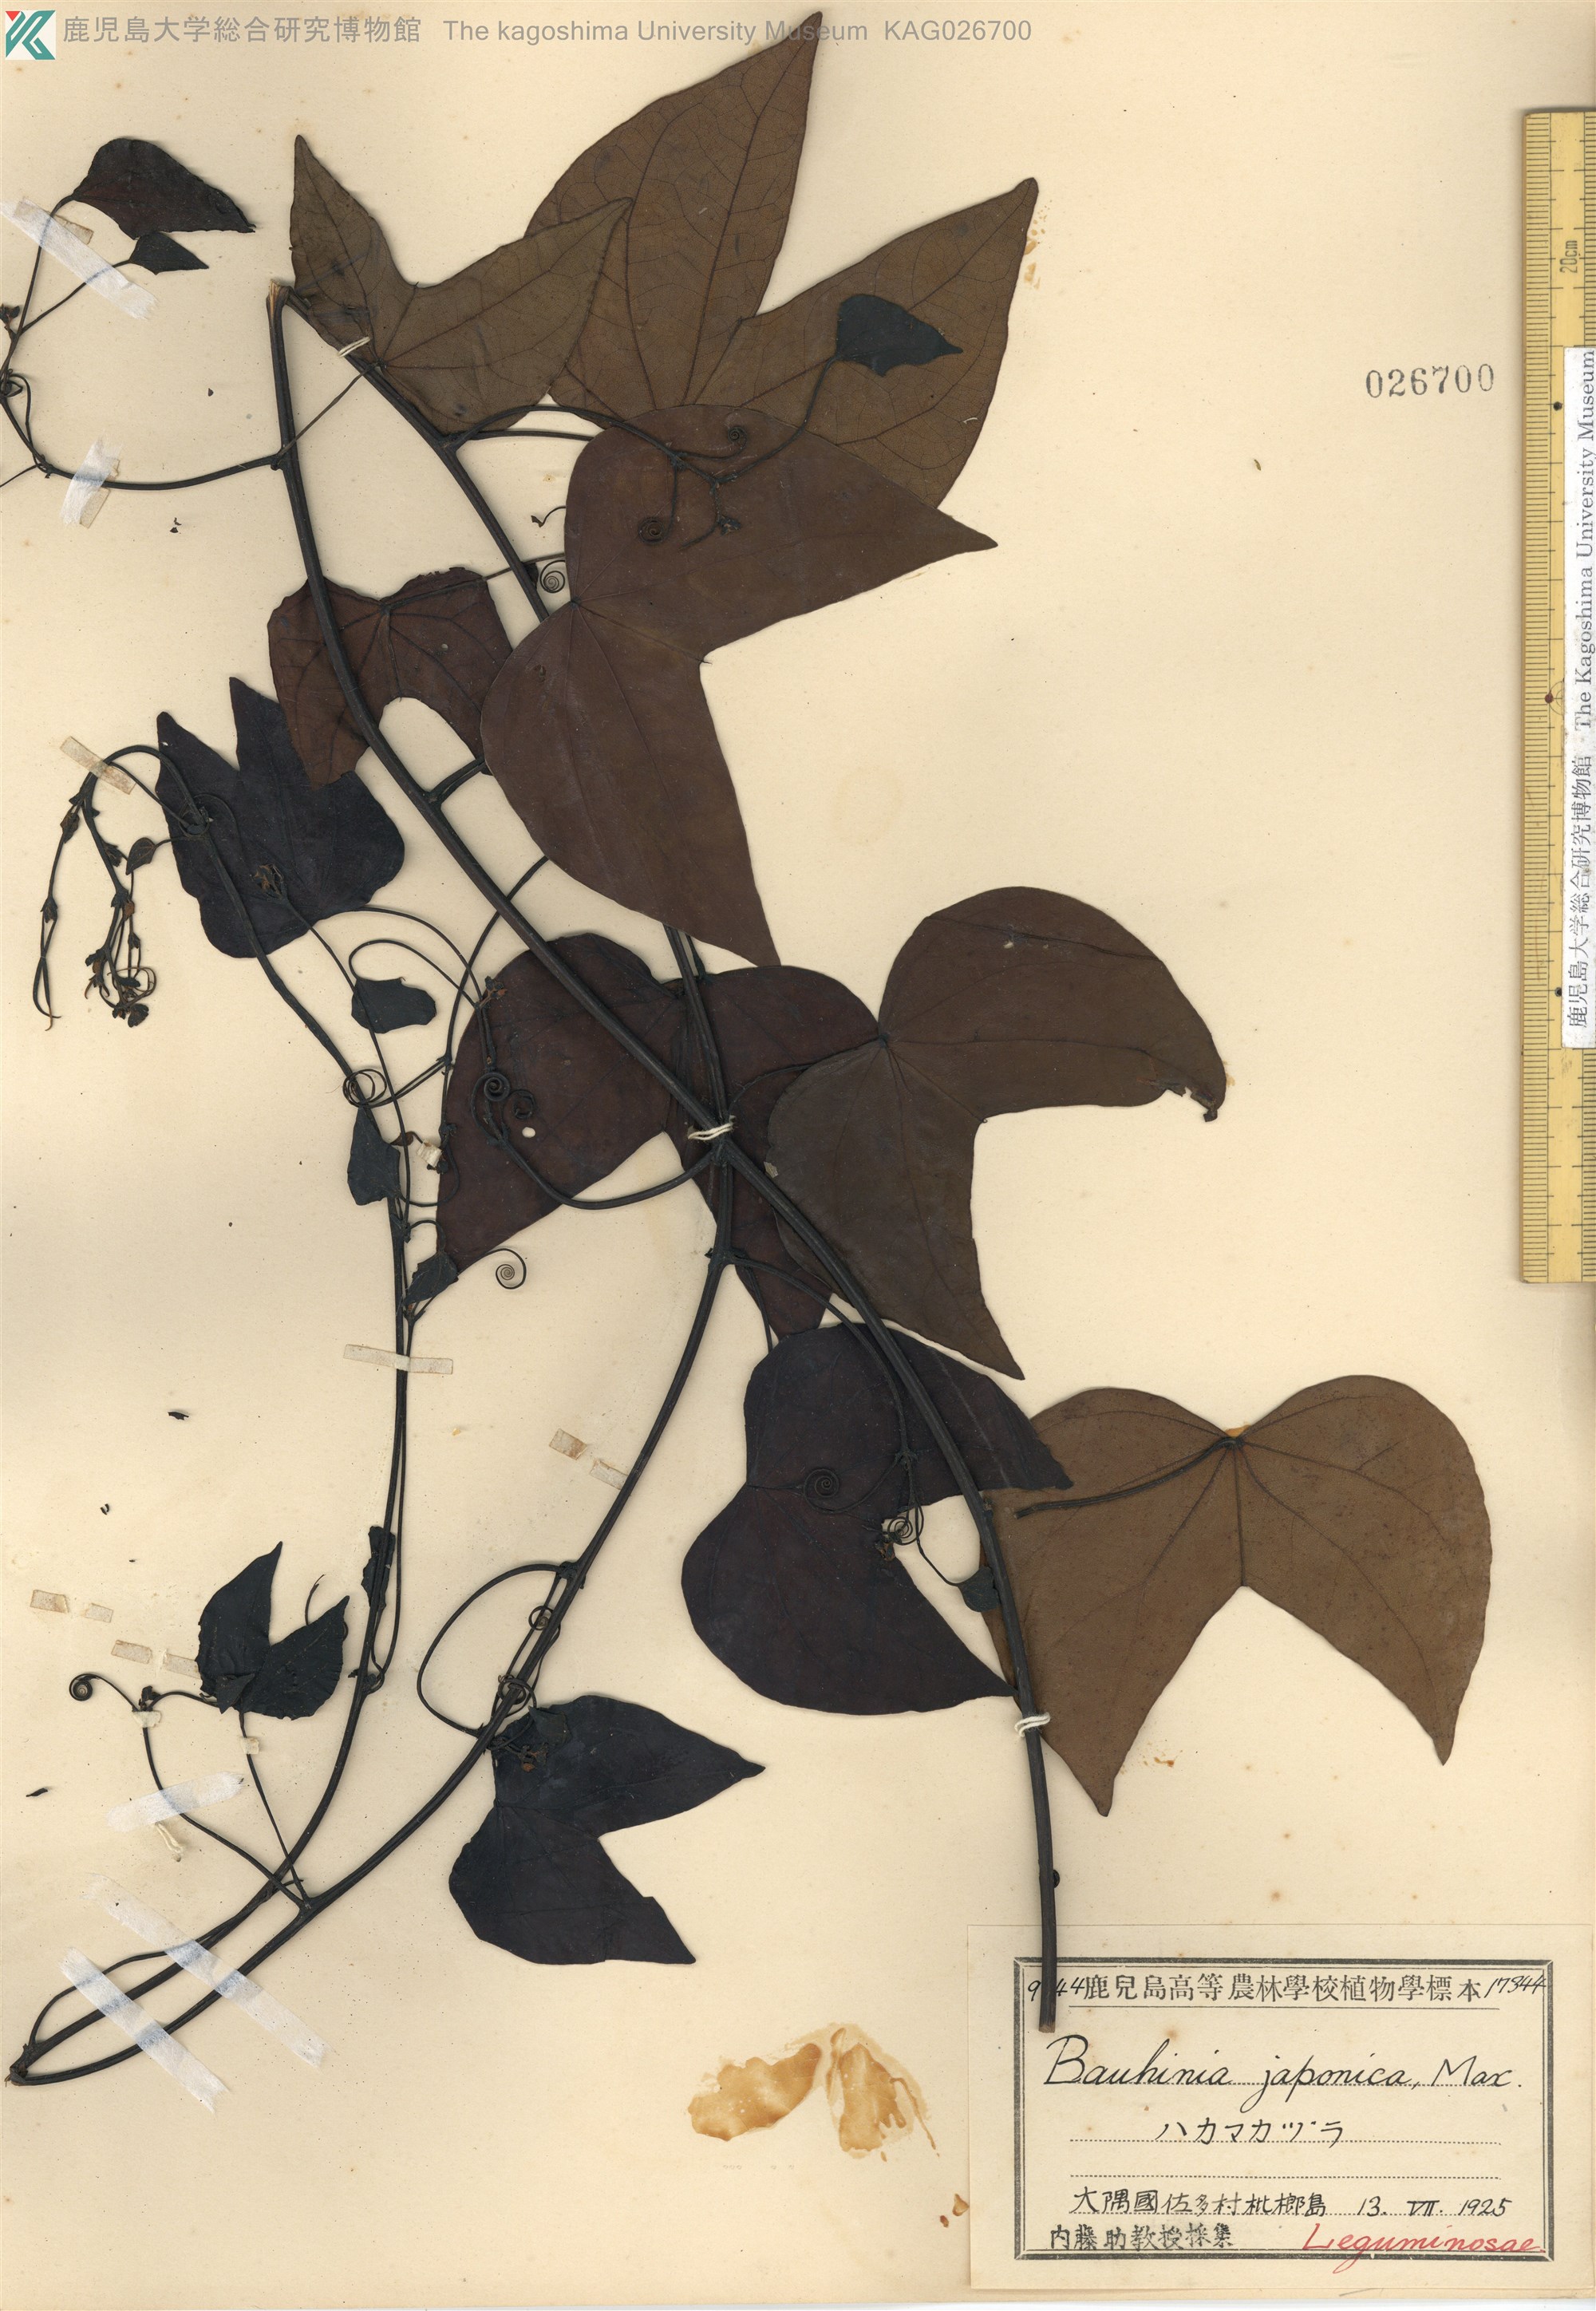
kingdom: Plantae
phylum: Tracheophyta
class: Magnoliopsida
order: Fabales
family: Fabaceae
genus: Phanera
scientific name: Phanera japonica
